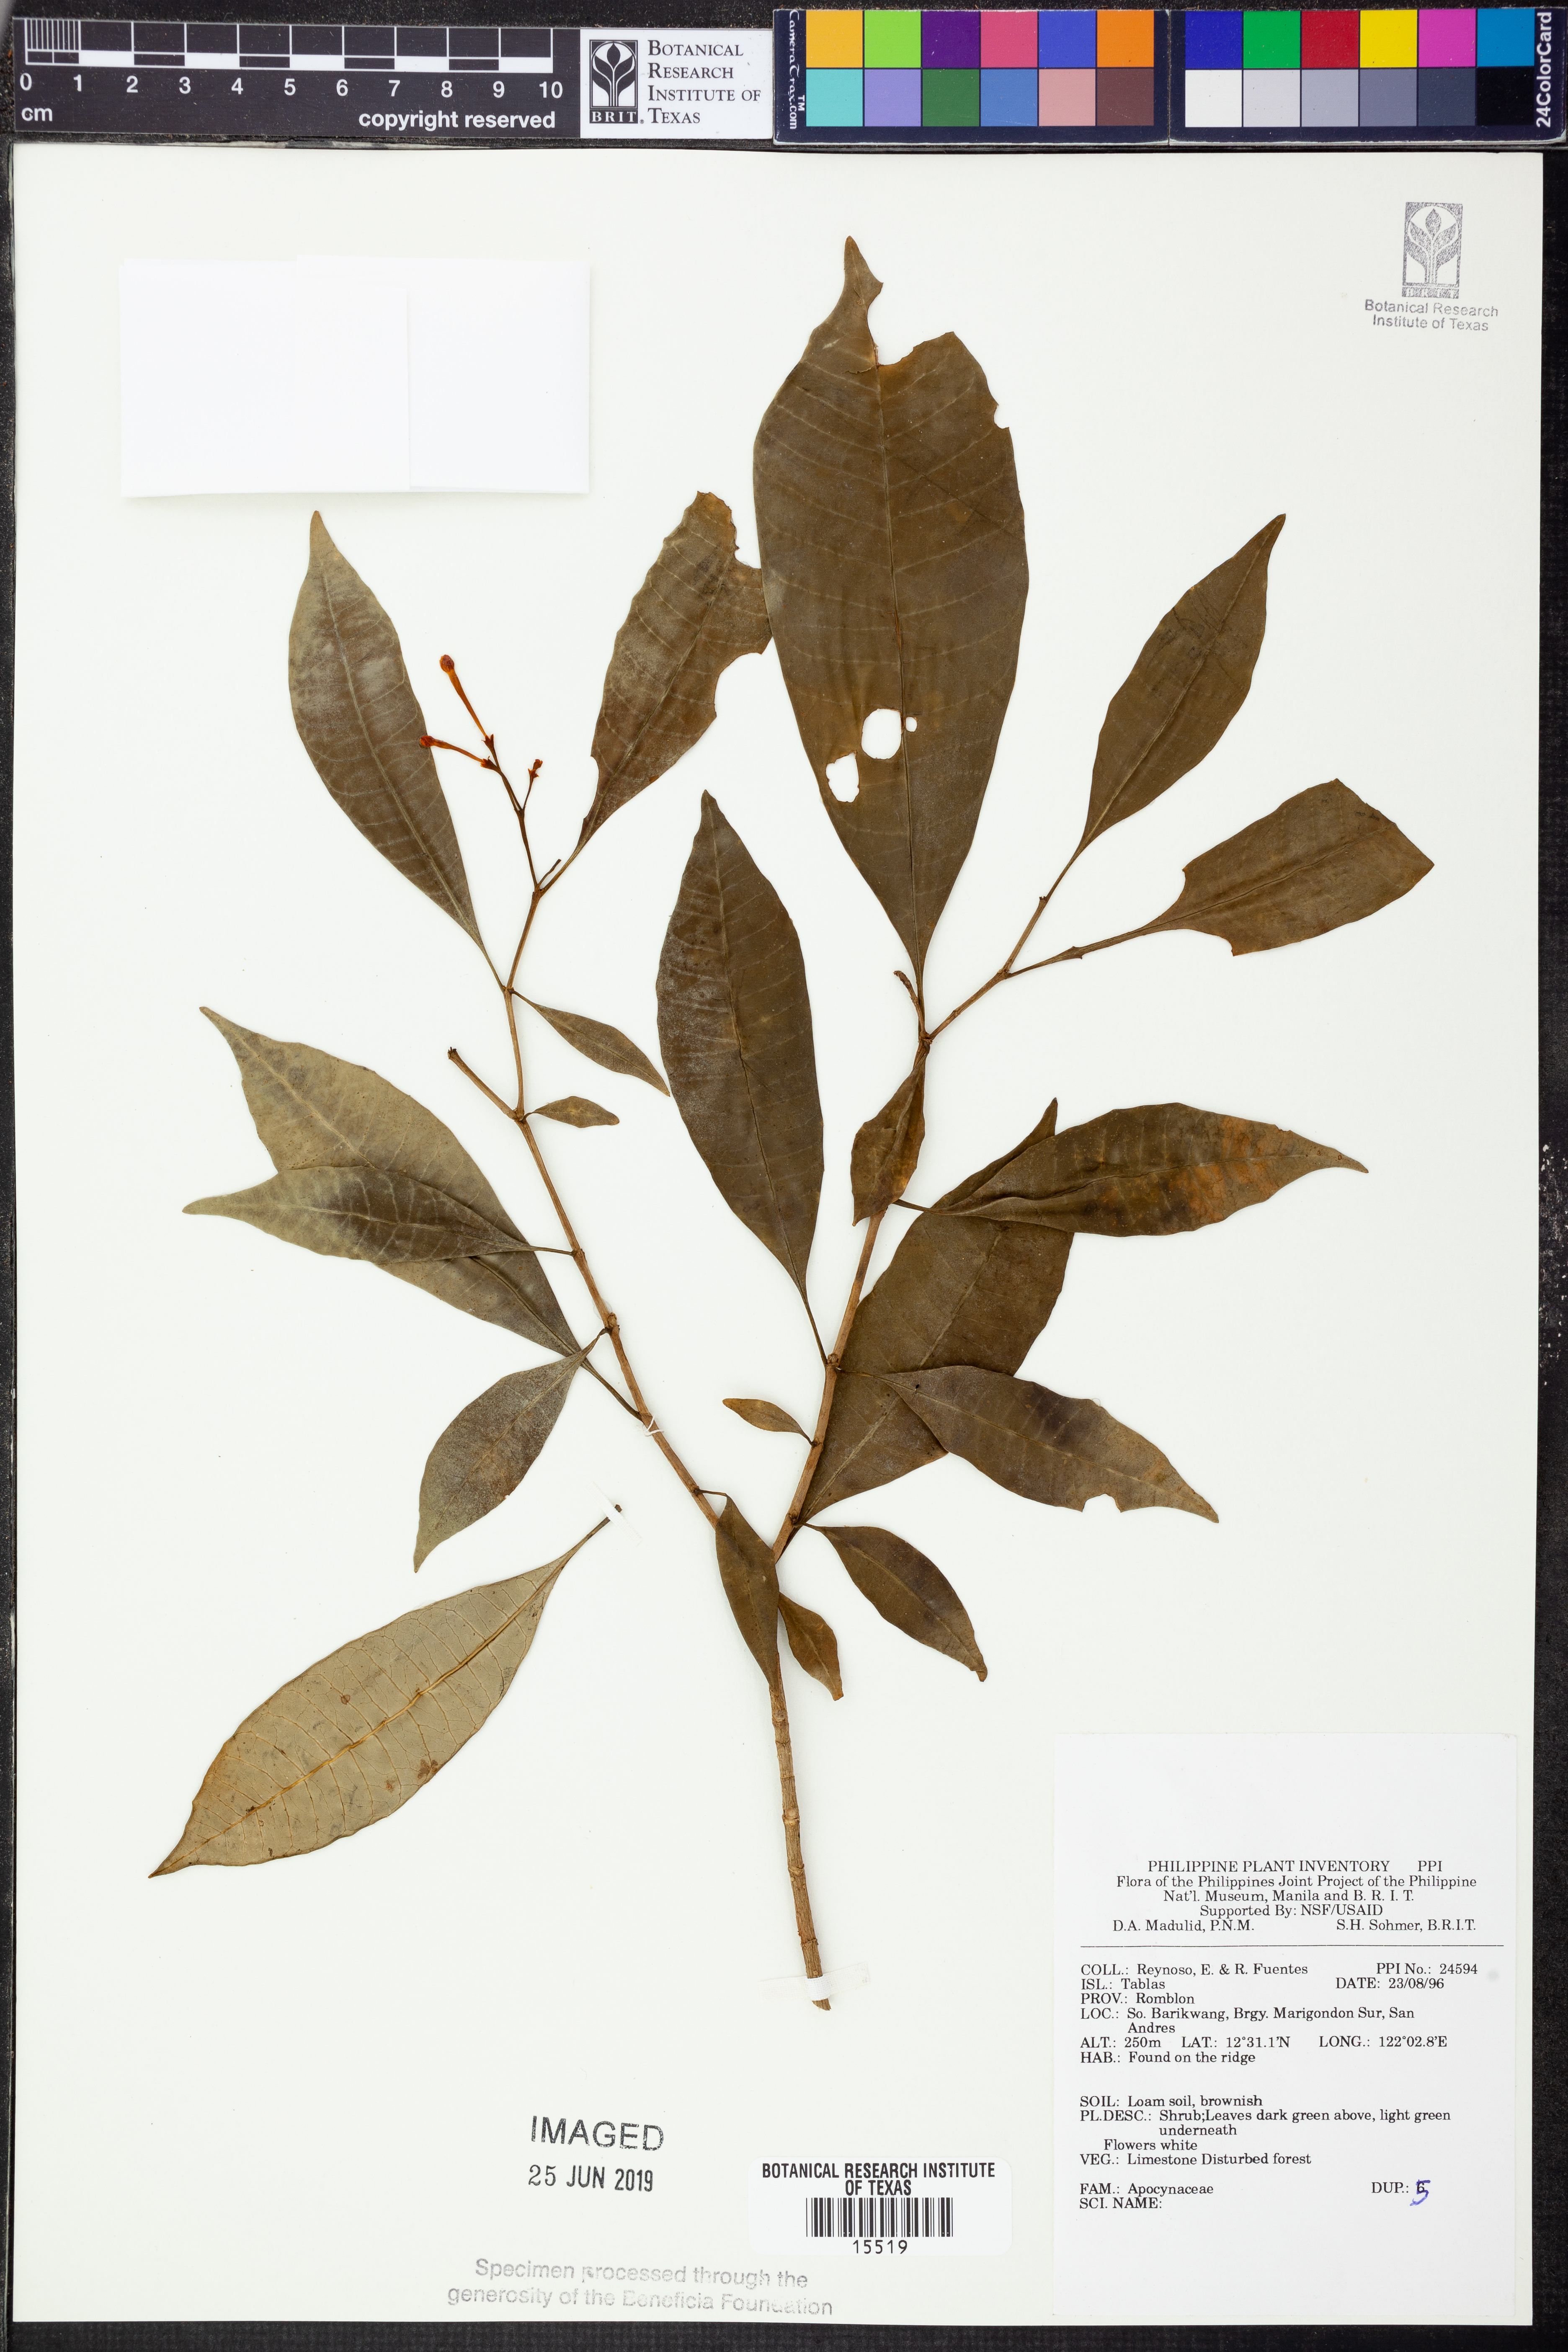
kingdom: Plantae
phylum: Tracheophyta
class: Magnoliopsida
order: Gentianales
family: Apocynaceae
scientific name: Apocynaceae
